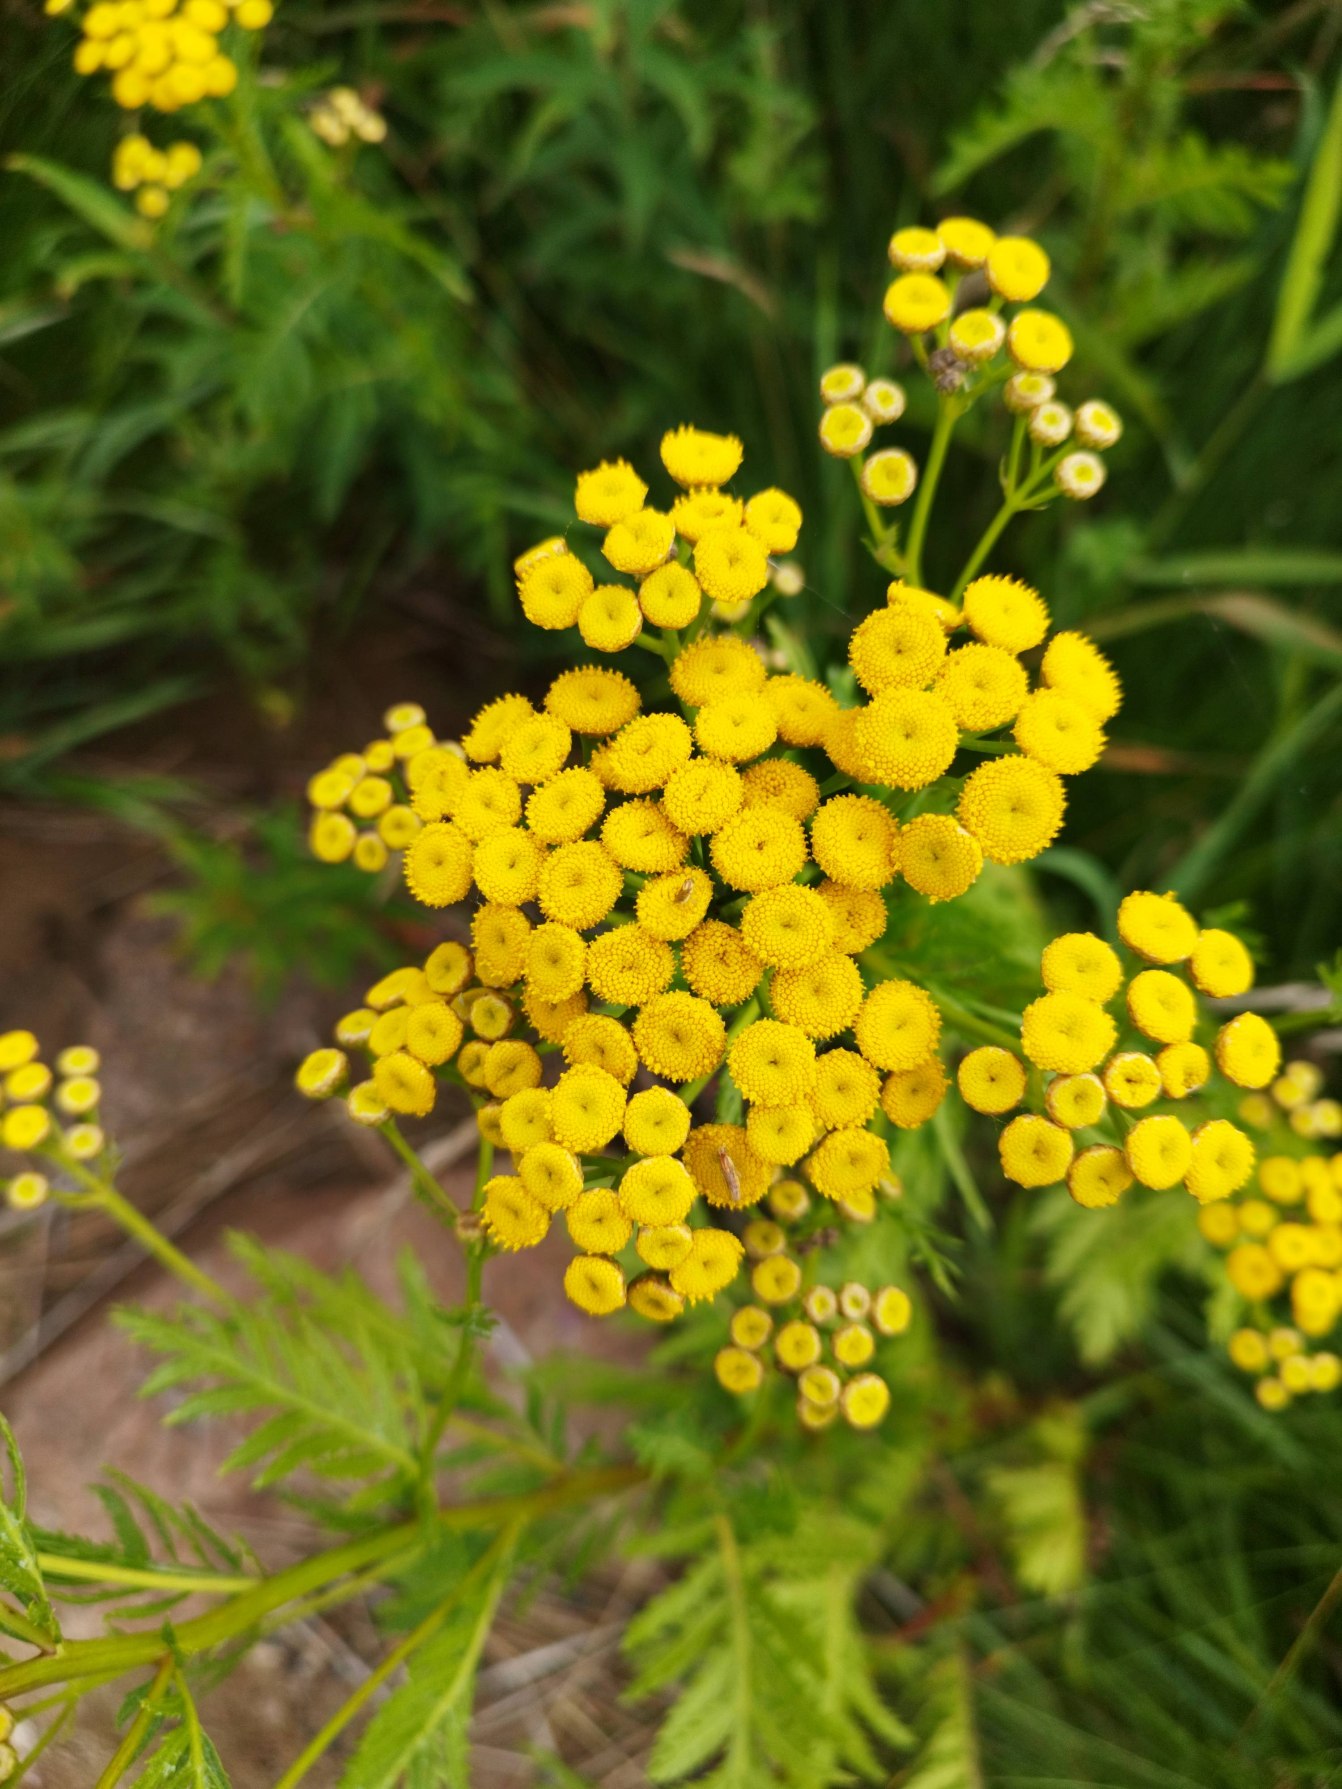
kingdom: Plantae
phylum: Tracheophyta
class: Magnoliopsida
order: Asterales
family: Asteraceae
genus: Tanacetum
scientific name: Tanacetum vulgare
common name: Rejnfan
